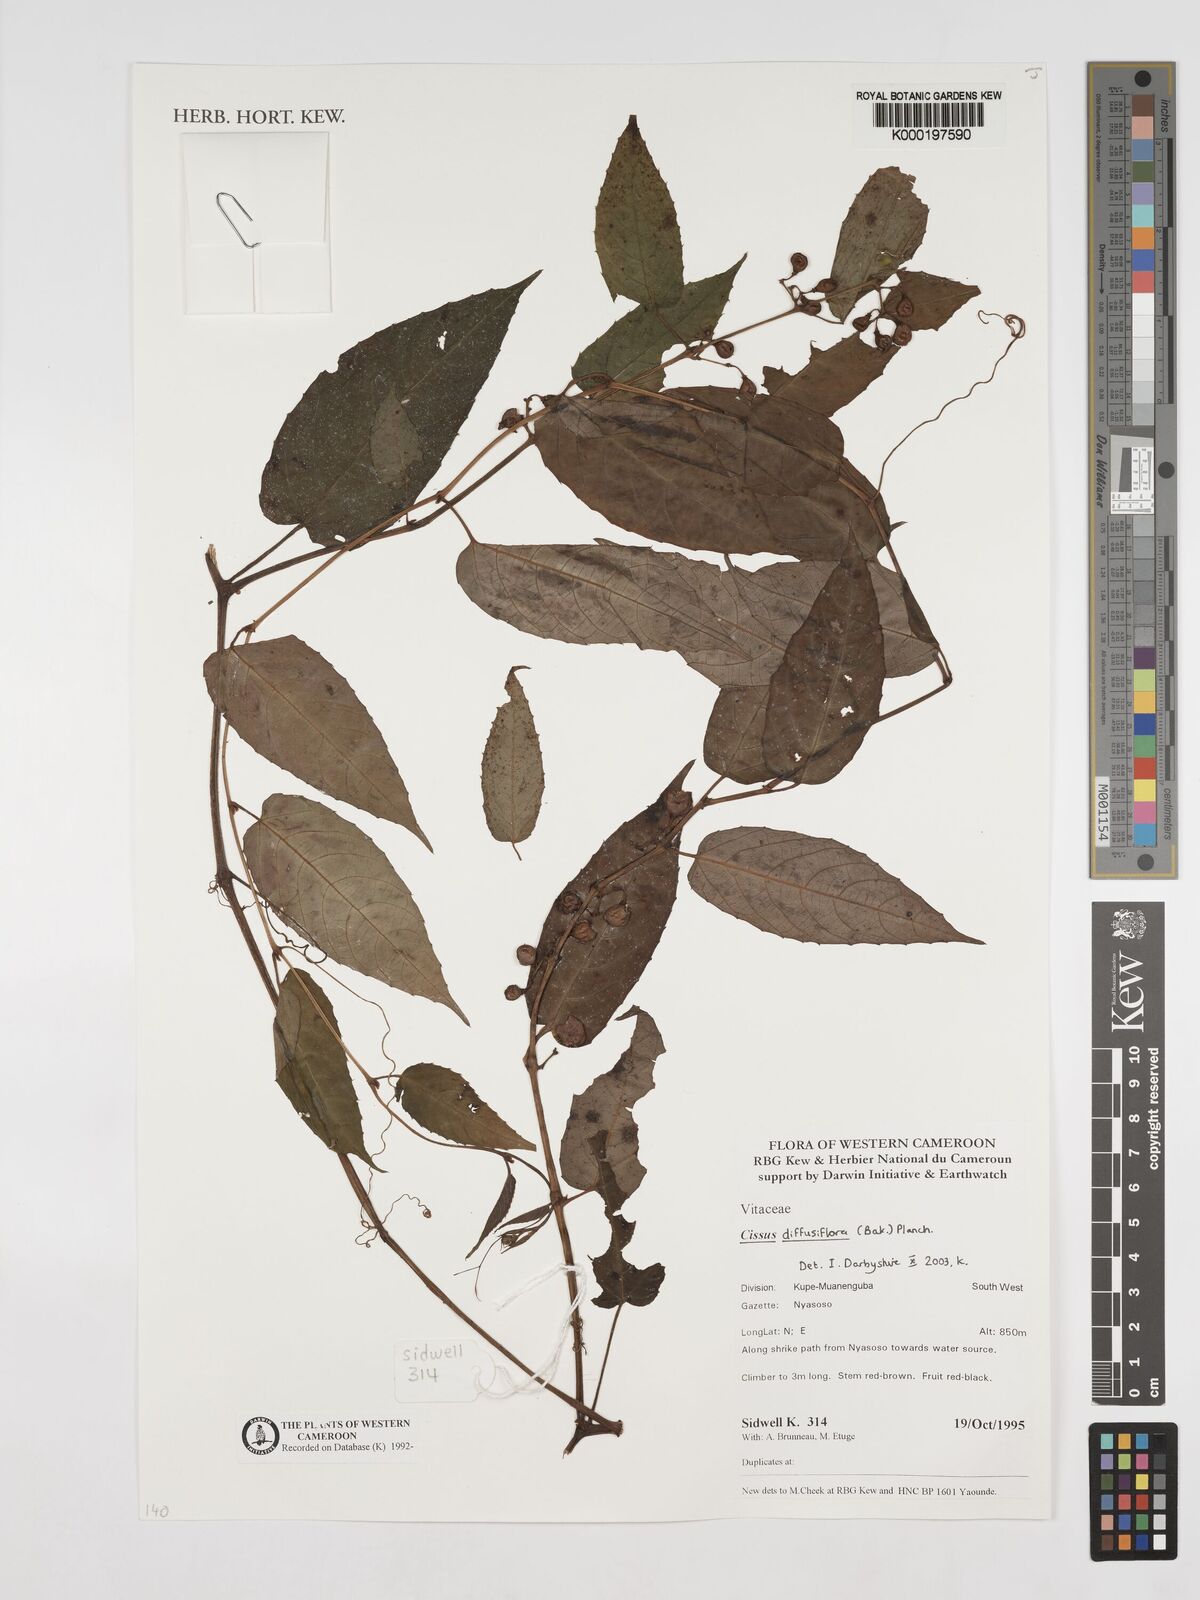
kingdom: Plantae
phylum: Tracheophyta
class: Magnoliopsida
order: Vitales
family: Vitaceae
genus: Cissus
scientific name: Cissus diffusiflora
